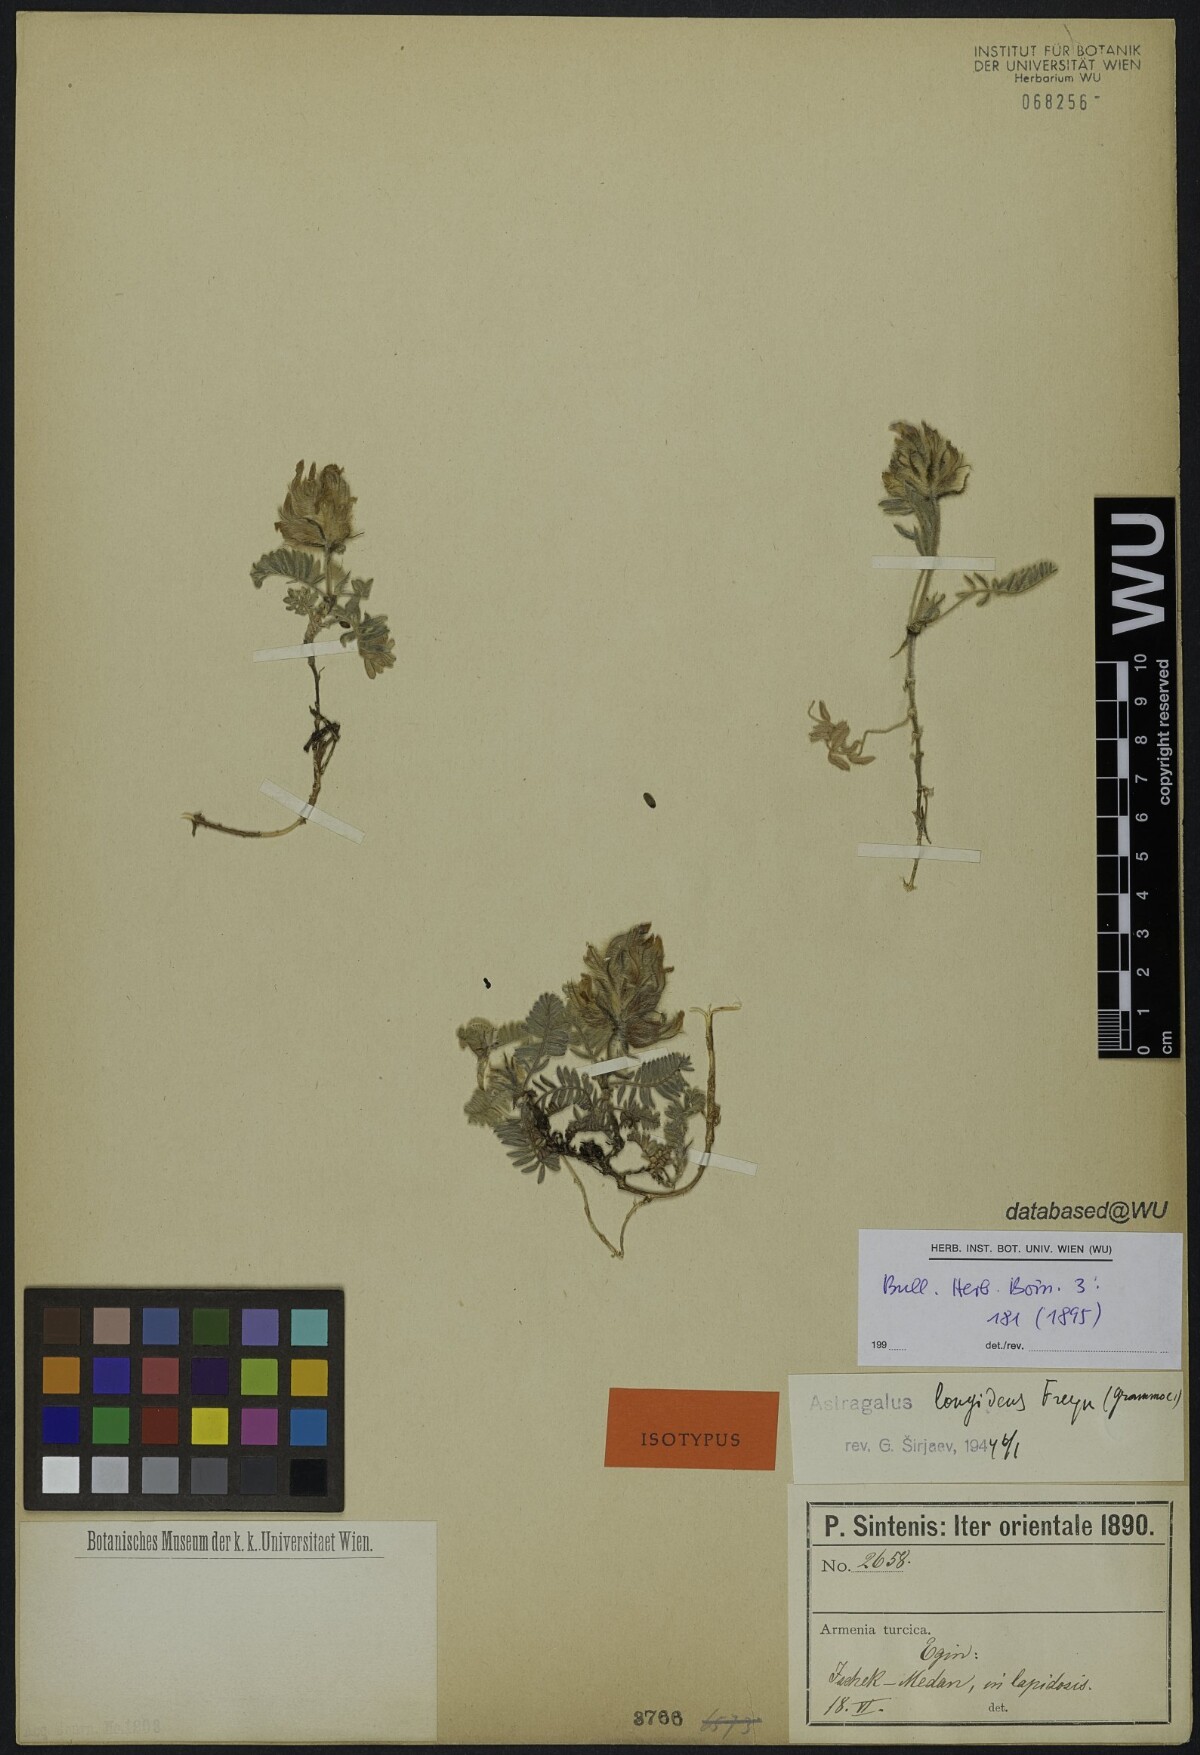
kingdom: Plantae
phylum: Tracheophyta
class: Magnoliopsida
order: Fabales
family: Fabaceae
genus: Astragalus
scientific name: Astragalus lineatus
